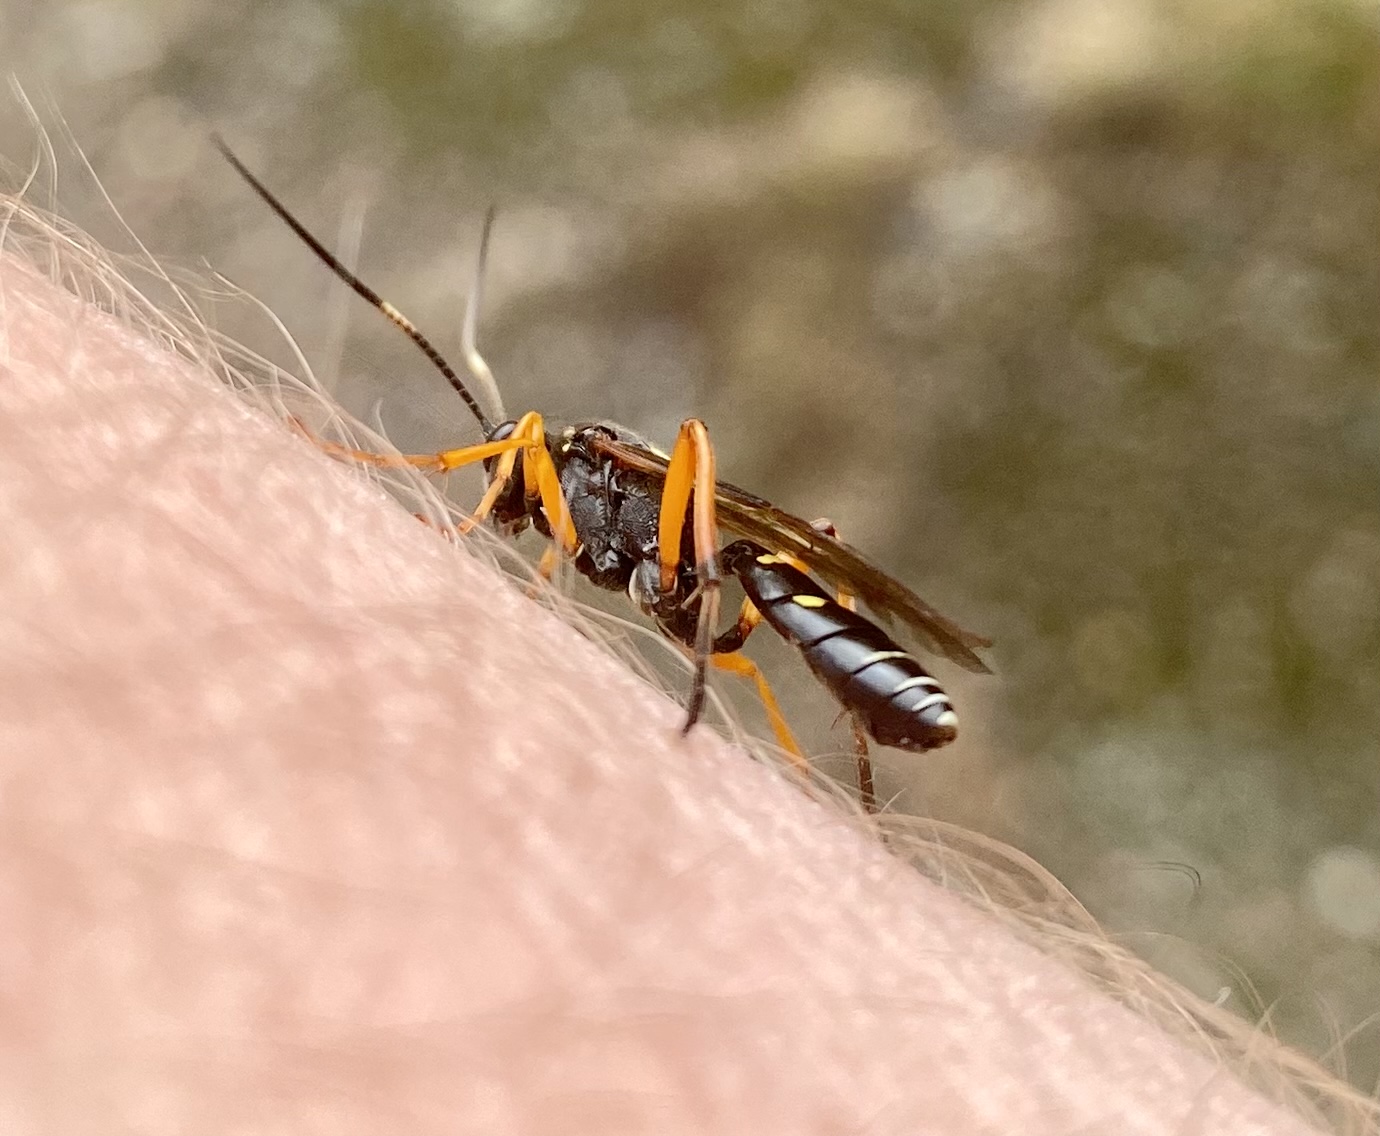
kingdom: Animalia
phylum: Arthropoda
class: Insecta
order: Hymenoptera
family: Ichneumonidae
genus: Diphyus
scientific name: Diphyus quadripunctorius
